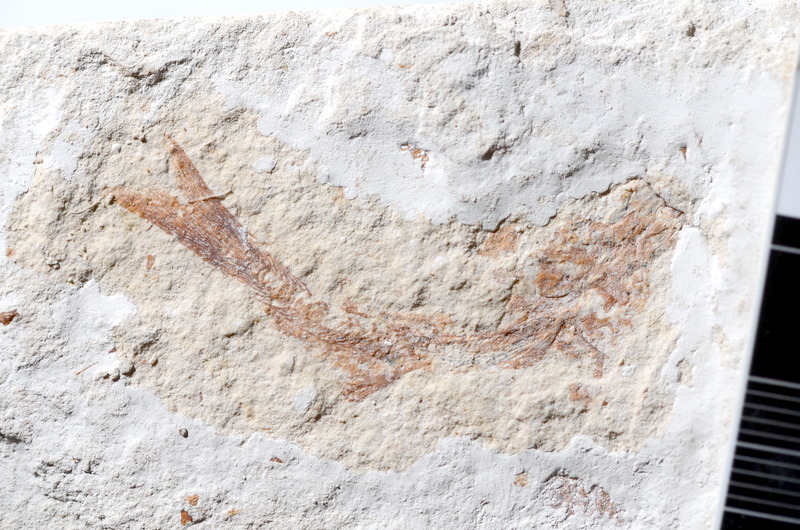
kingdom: Animalia
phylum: Chordata
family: Ascalaboidae
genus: Tharsis
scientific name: Tharsis dubius
